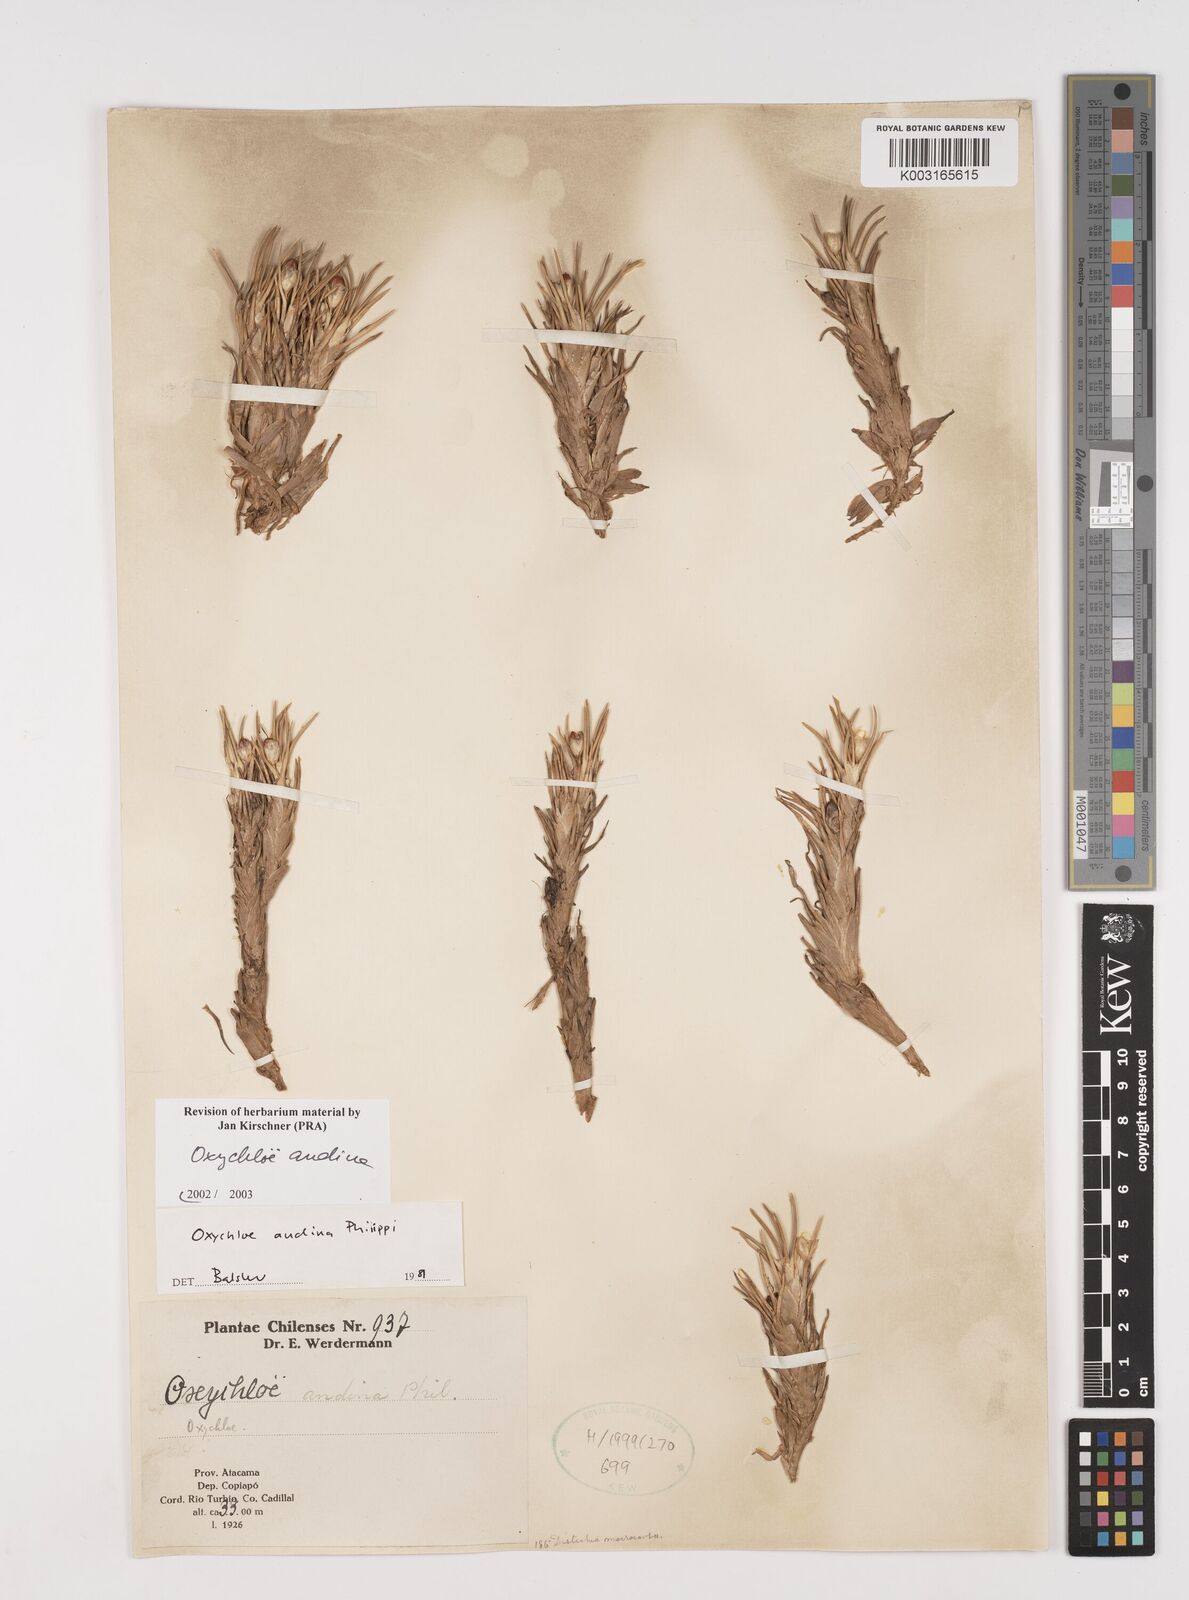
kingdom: Plantae
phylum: Tracheophyta
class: Liliopsida
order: Poales
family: Juncaceae
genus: Oxychloe
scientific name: Oxychloe andina
